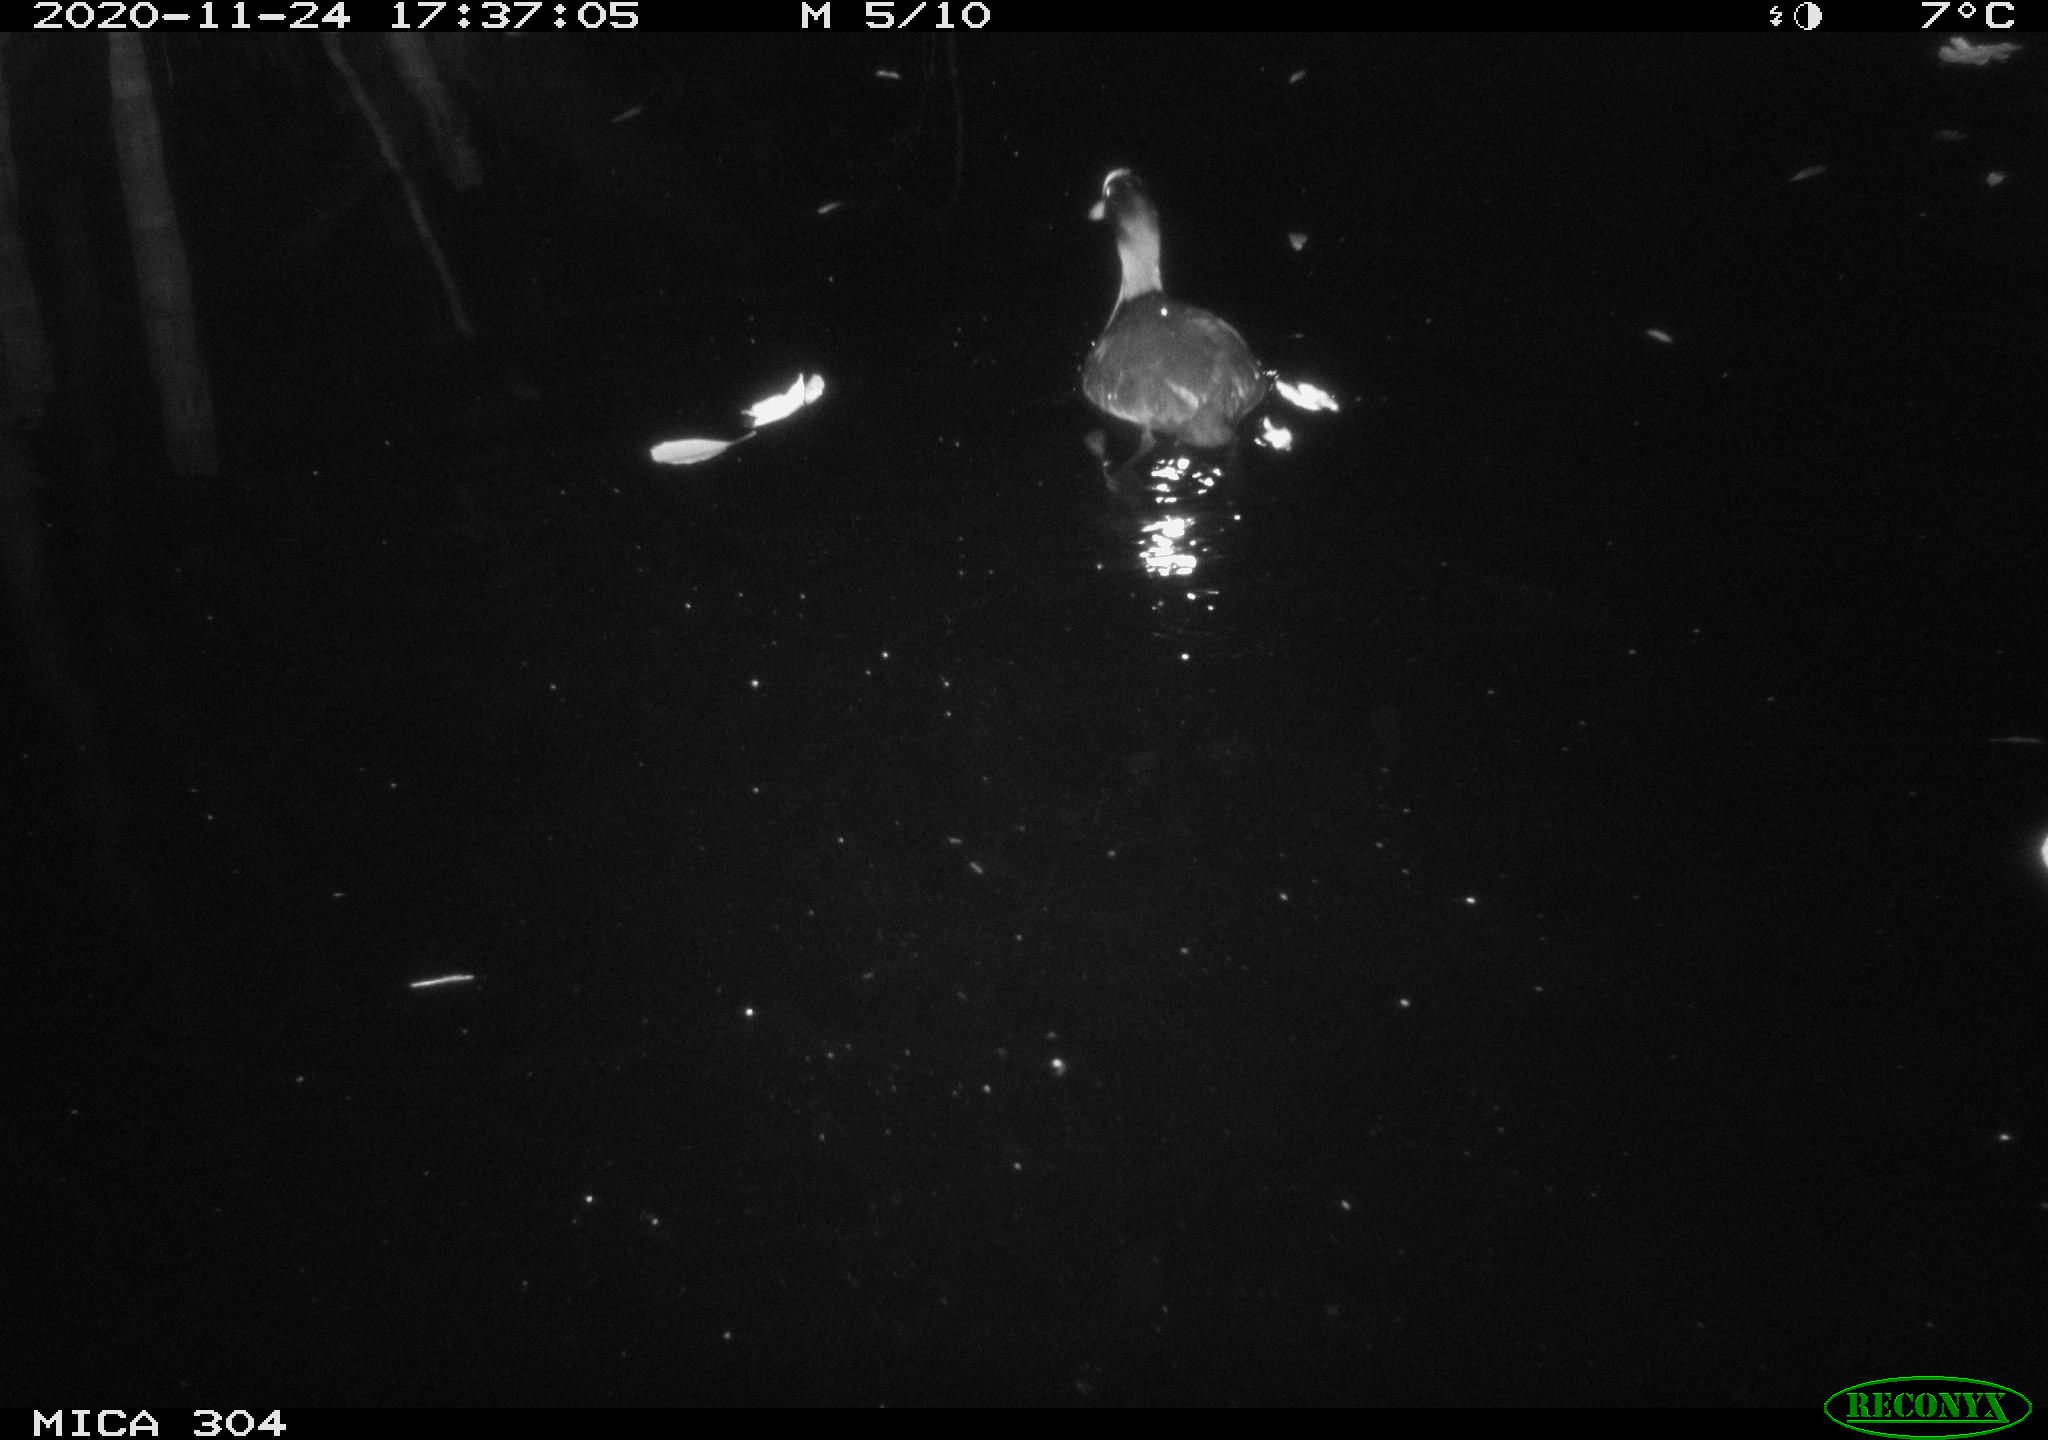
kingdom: Animalia
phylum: Chordata
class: Aves
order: Gruiformes
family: Rallidae
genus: Fulica
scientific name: Fulica atra
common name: Eurasian coot
